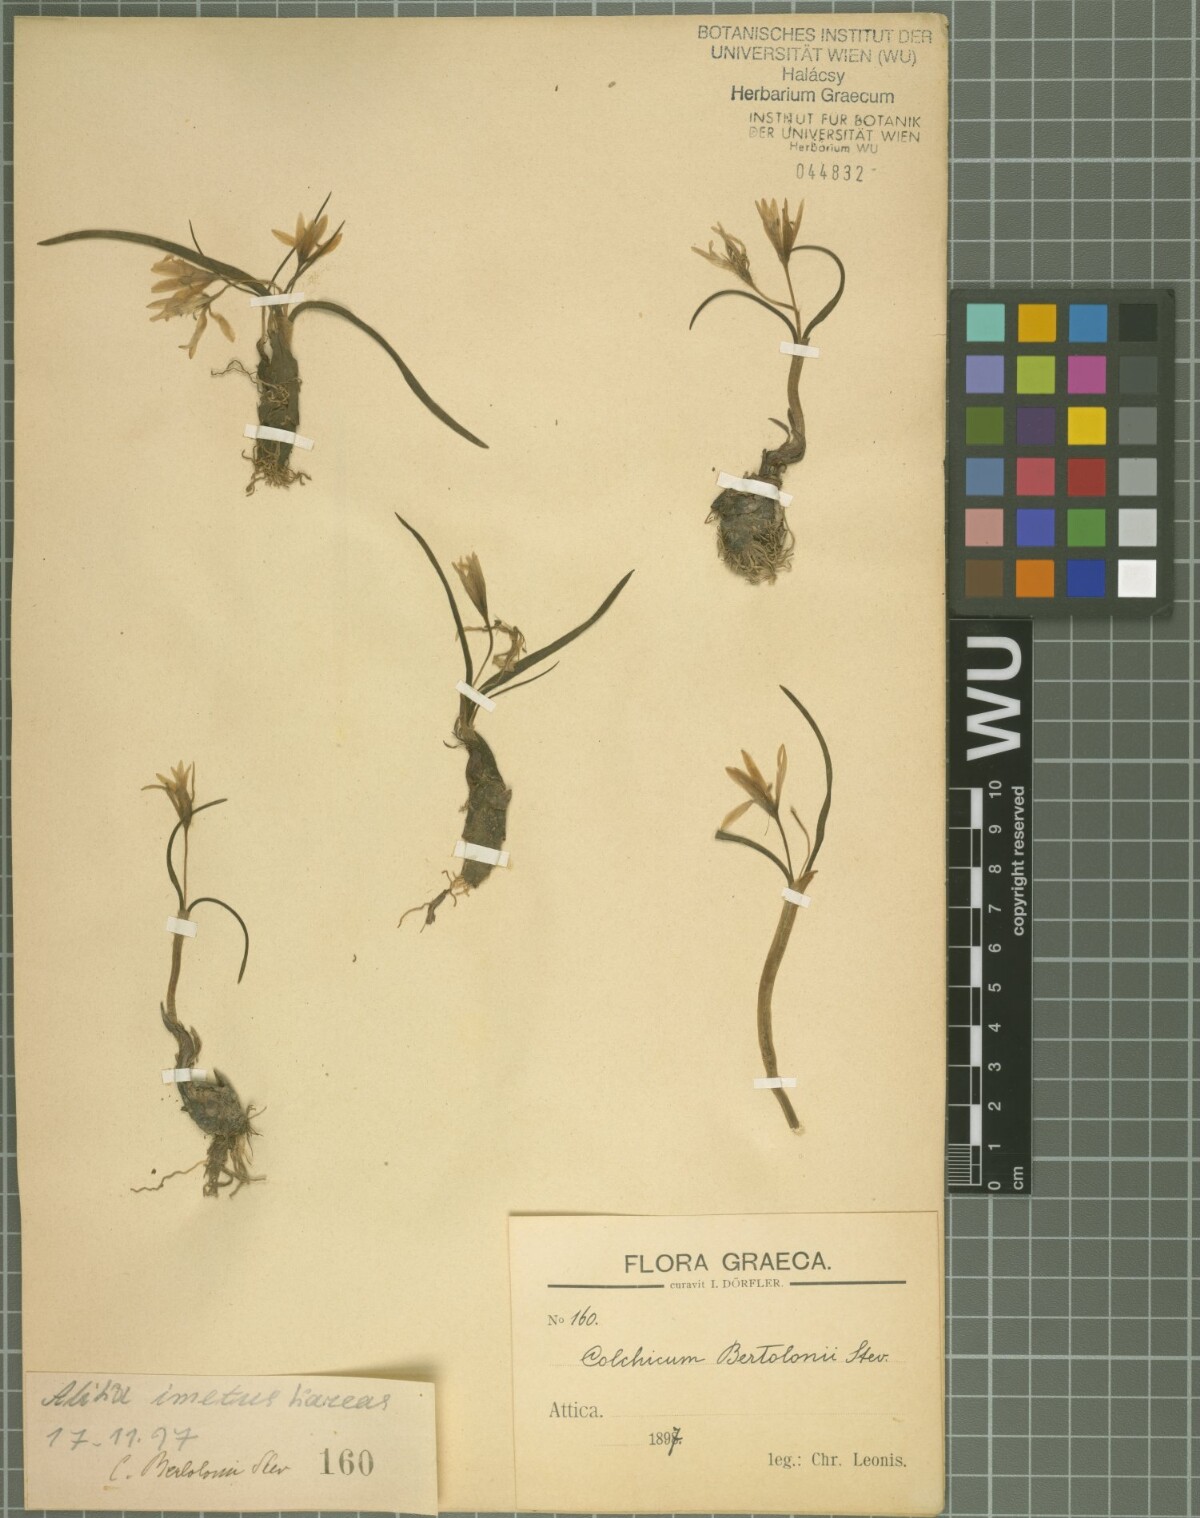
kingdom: Plantae
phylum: Tracheophyta
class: Liliopsida
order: Liliales
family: Colchicaceae
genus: Colchicum
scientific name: Colchicum cupanii
